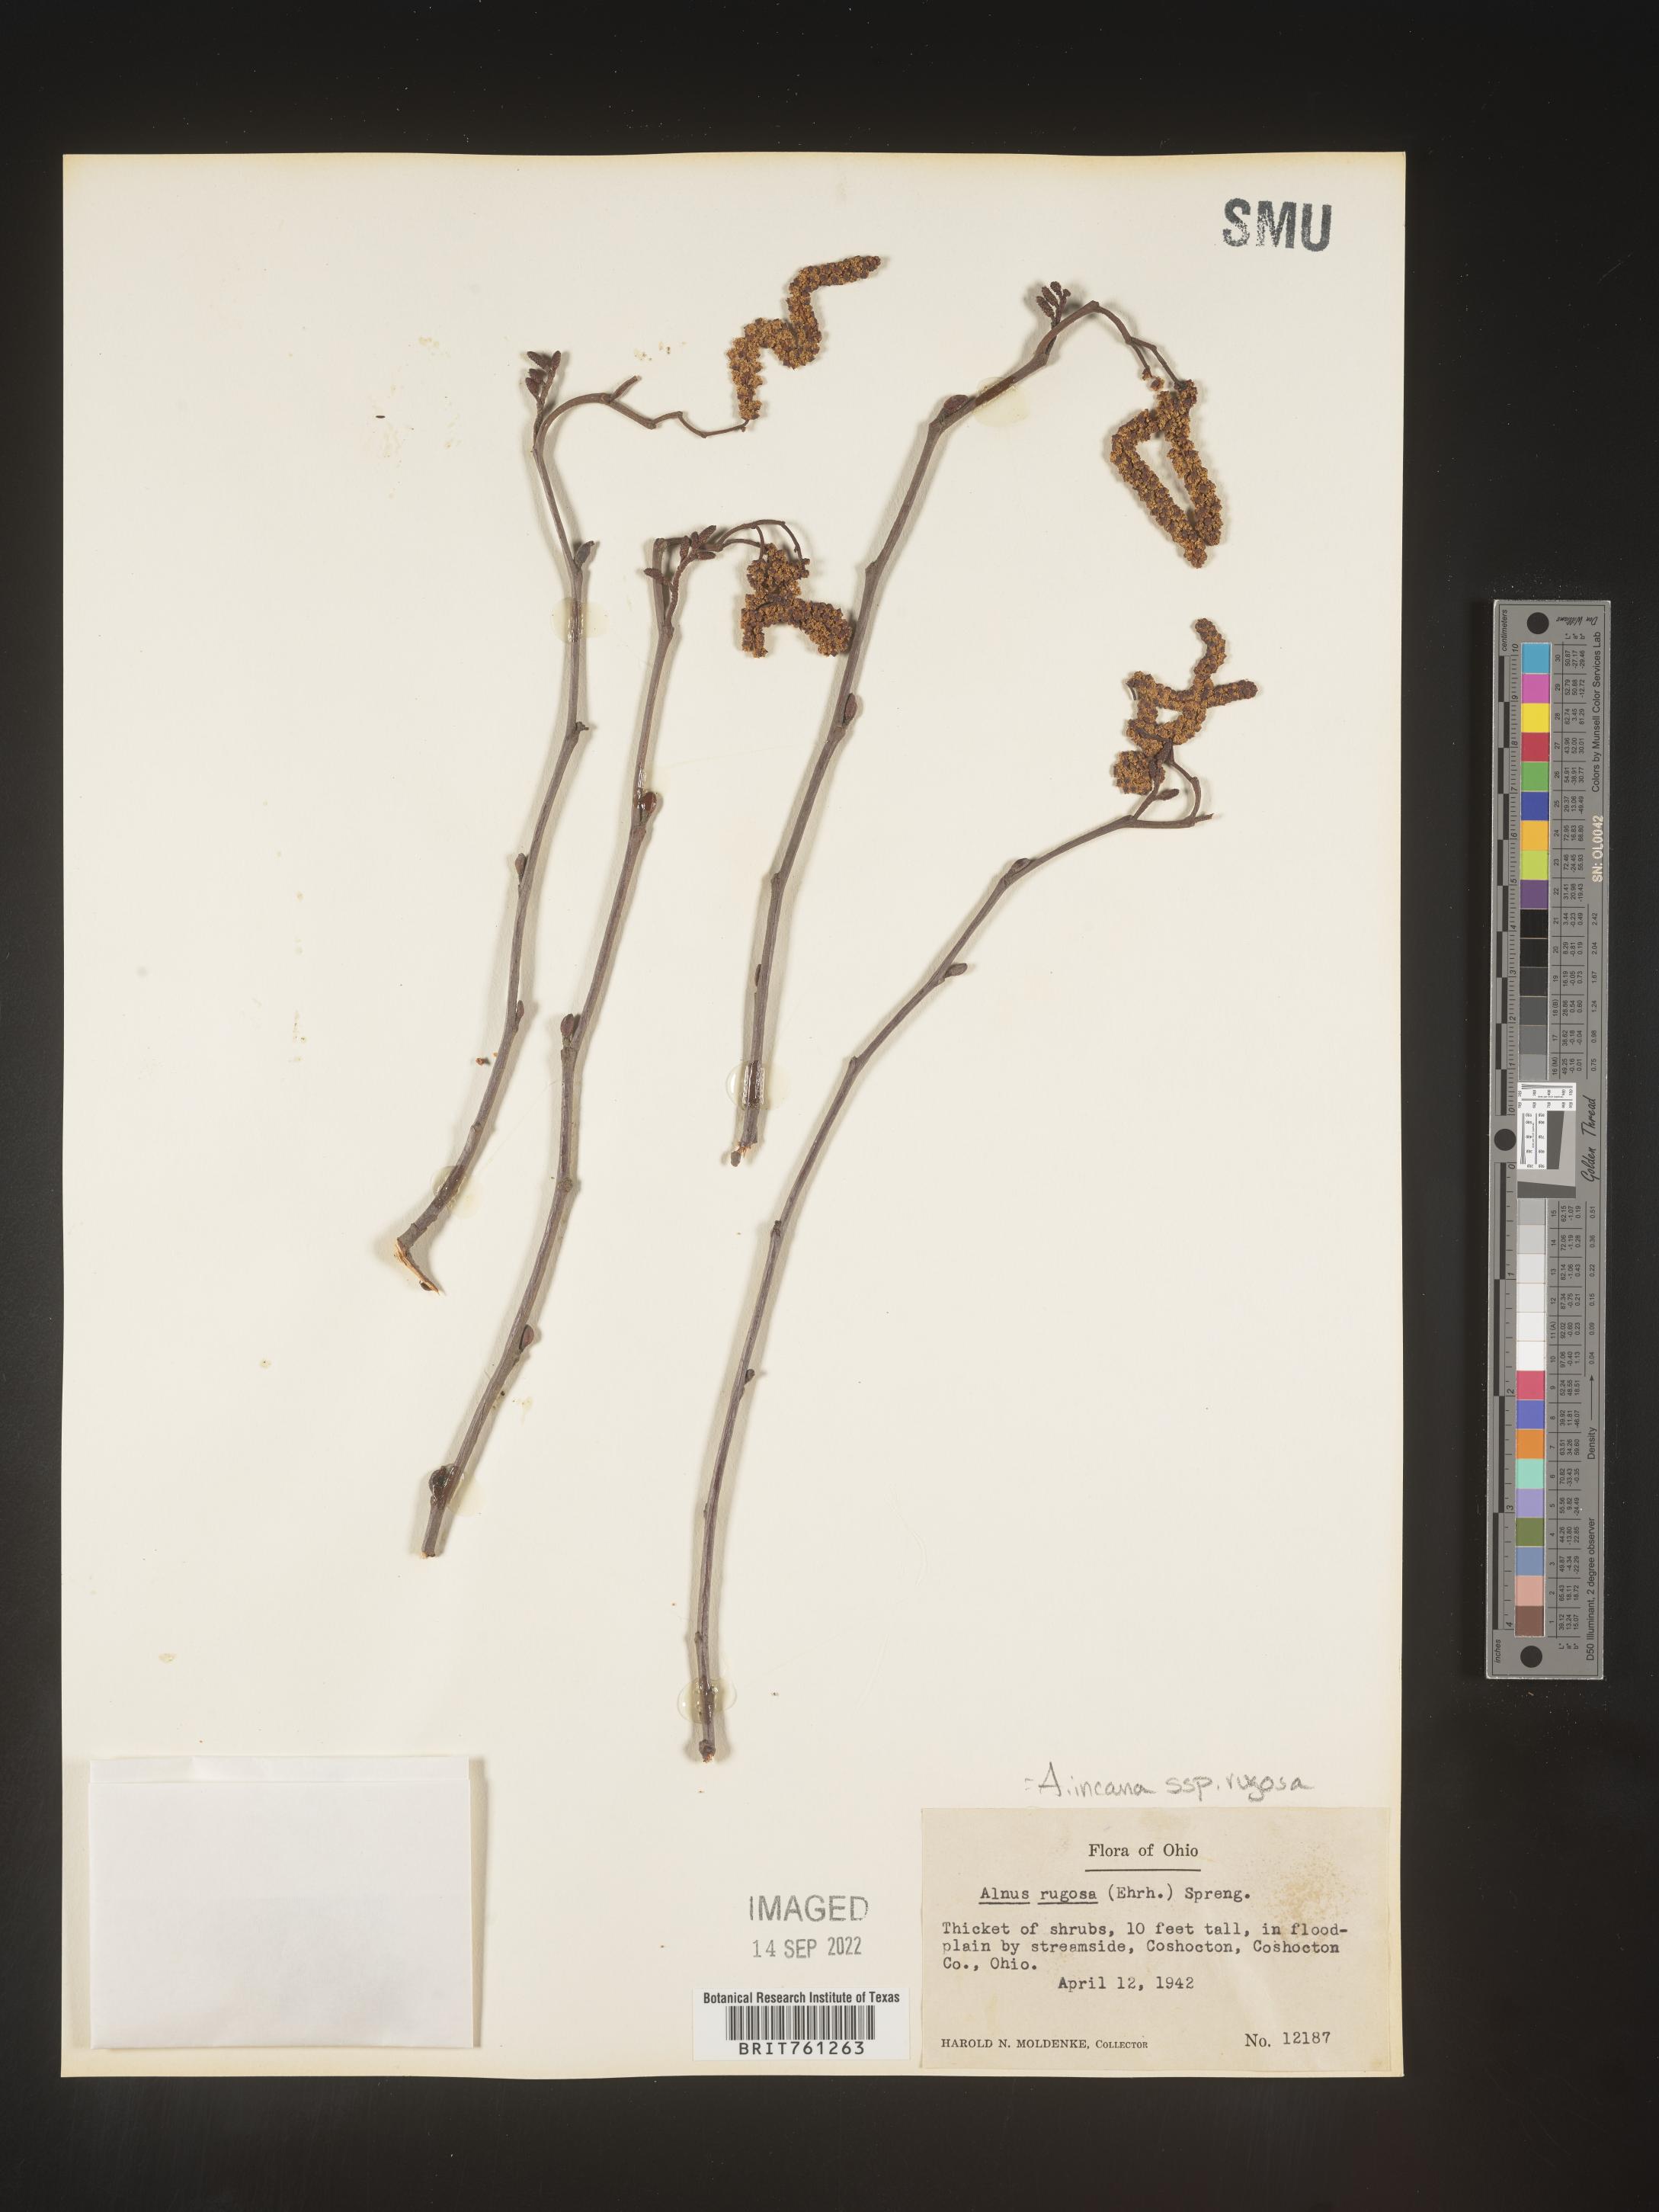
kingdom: Plantae
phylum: Tracheophyta
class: Magnoliopsida
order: Fagales
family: Betulaceae
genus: Alnus
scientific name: Alnus incana
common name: Grey alder
